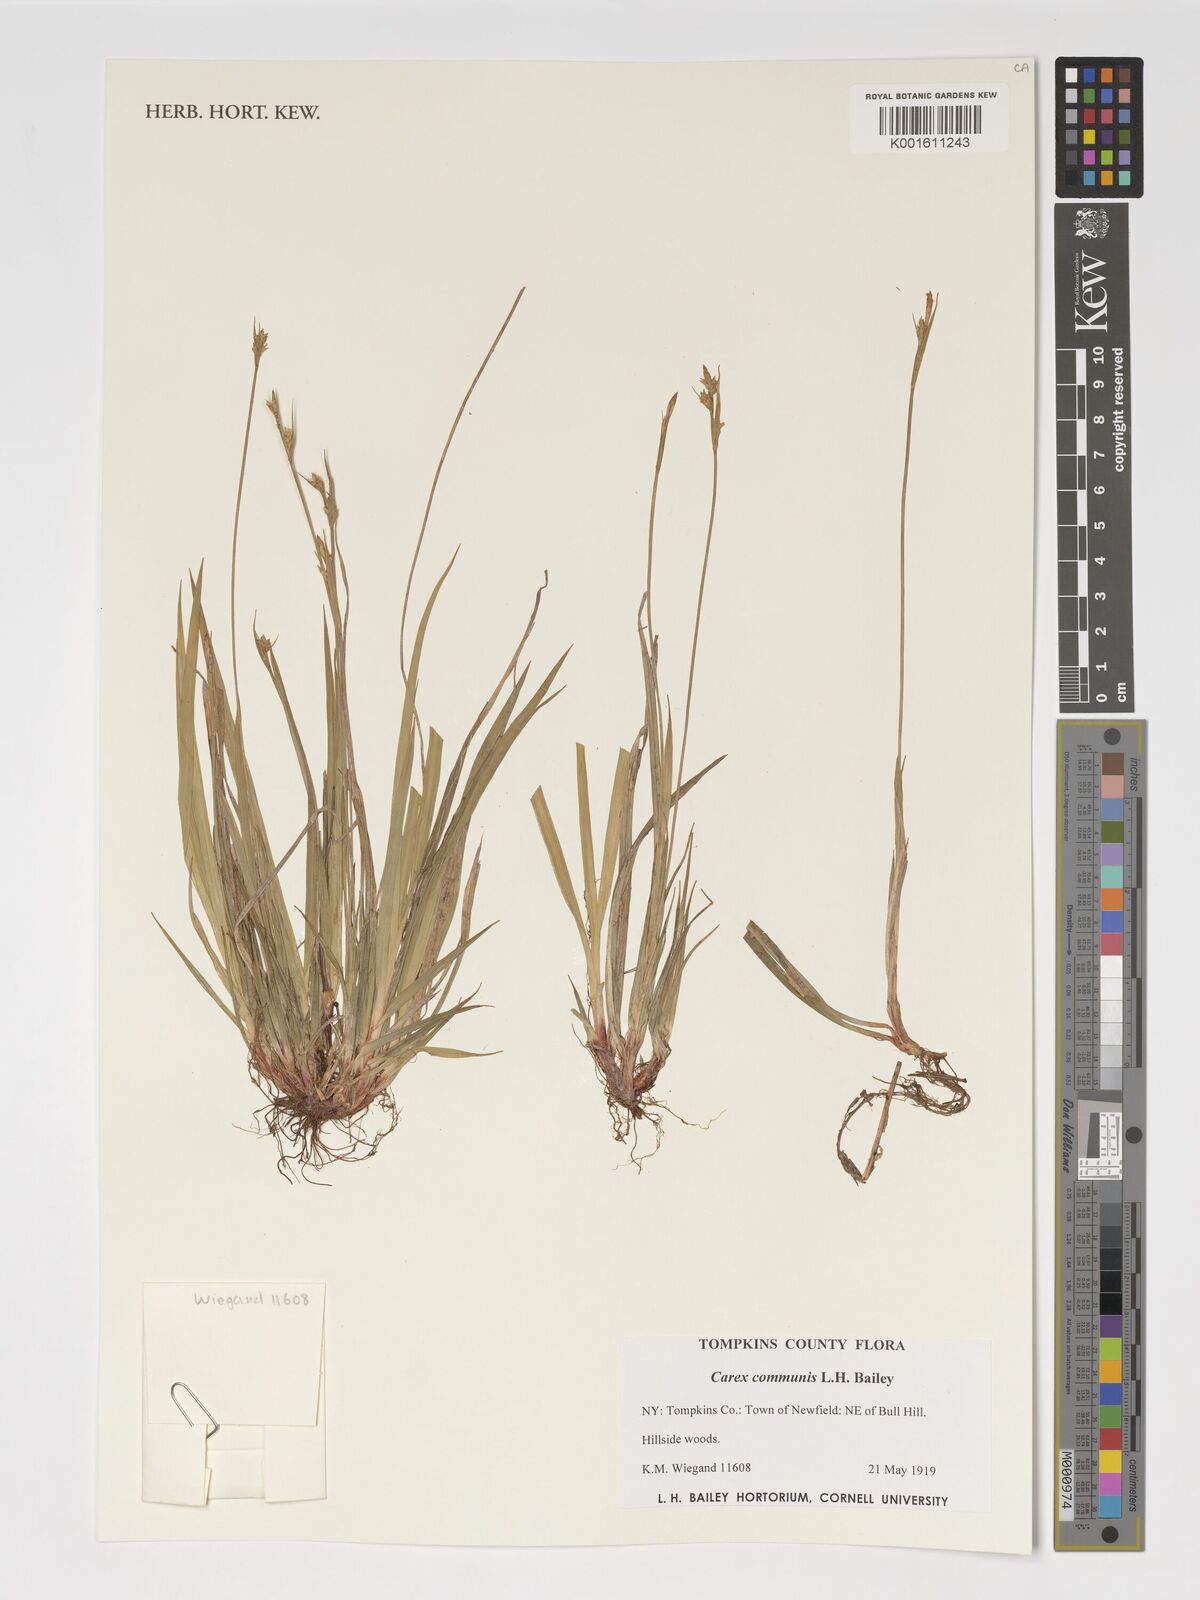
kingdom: Plantae
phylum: Tracheophyta
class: Liliopsida
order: Poales
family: Cyperaceae
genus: Carex
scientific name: Carex communis
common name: Colonial oak sedge
